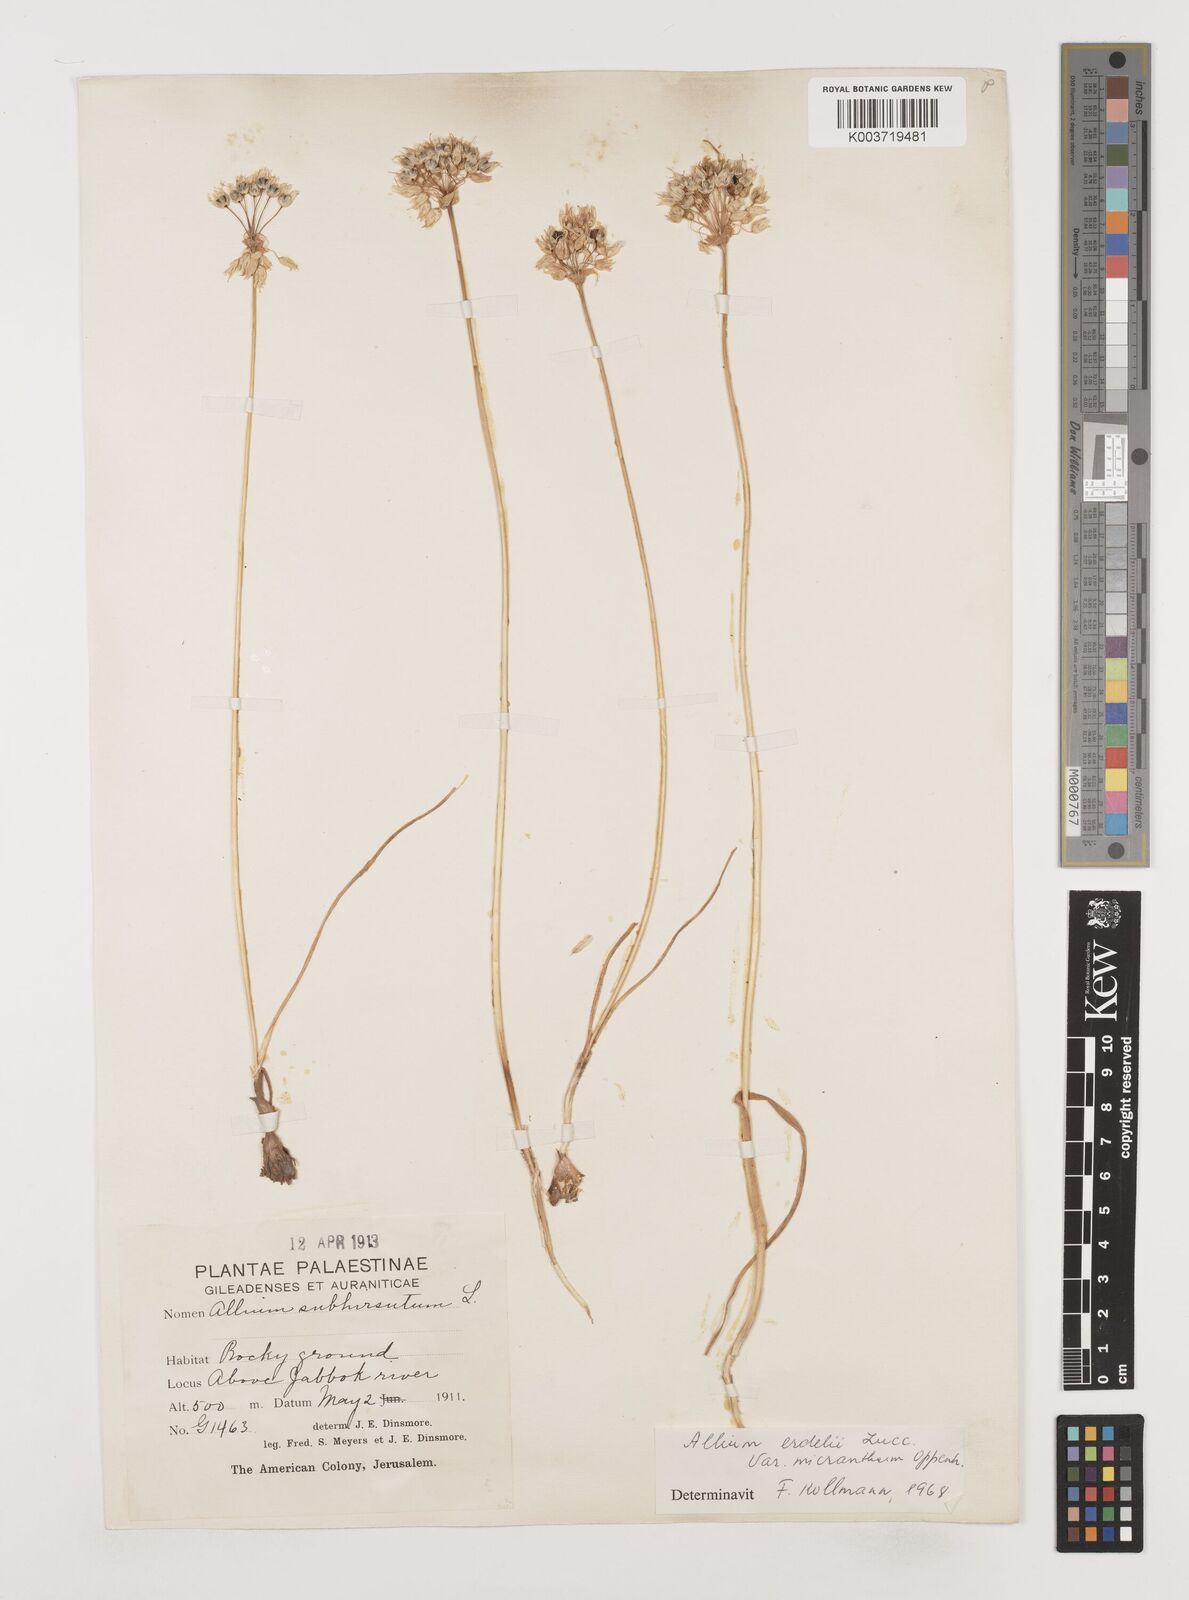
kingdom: Plantae
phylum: Tracheophyta
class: Liliopsida
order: Asparagales
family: Amaryllidaceae
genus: Allium
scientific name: Allium erdelii
